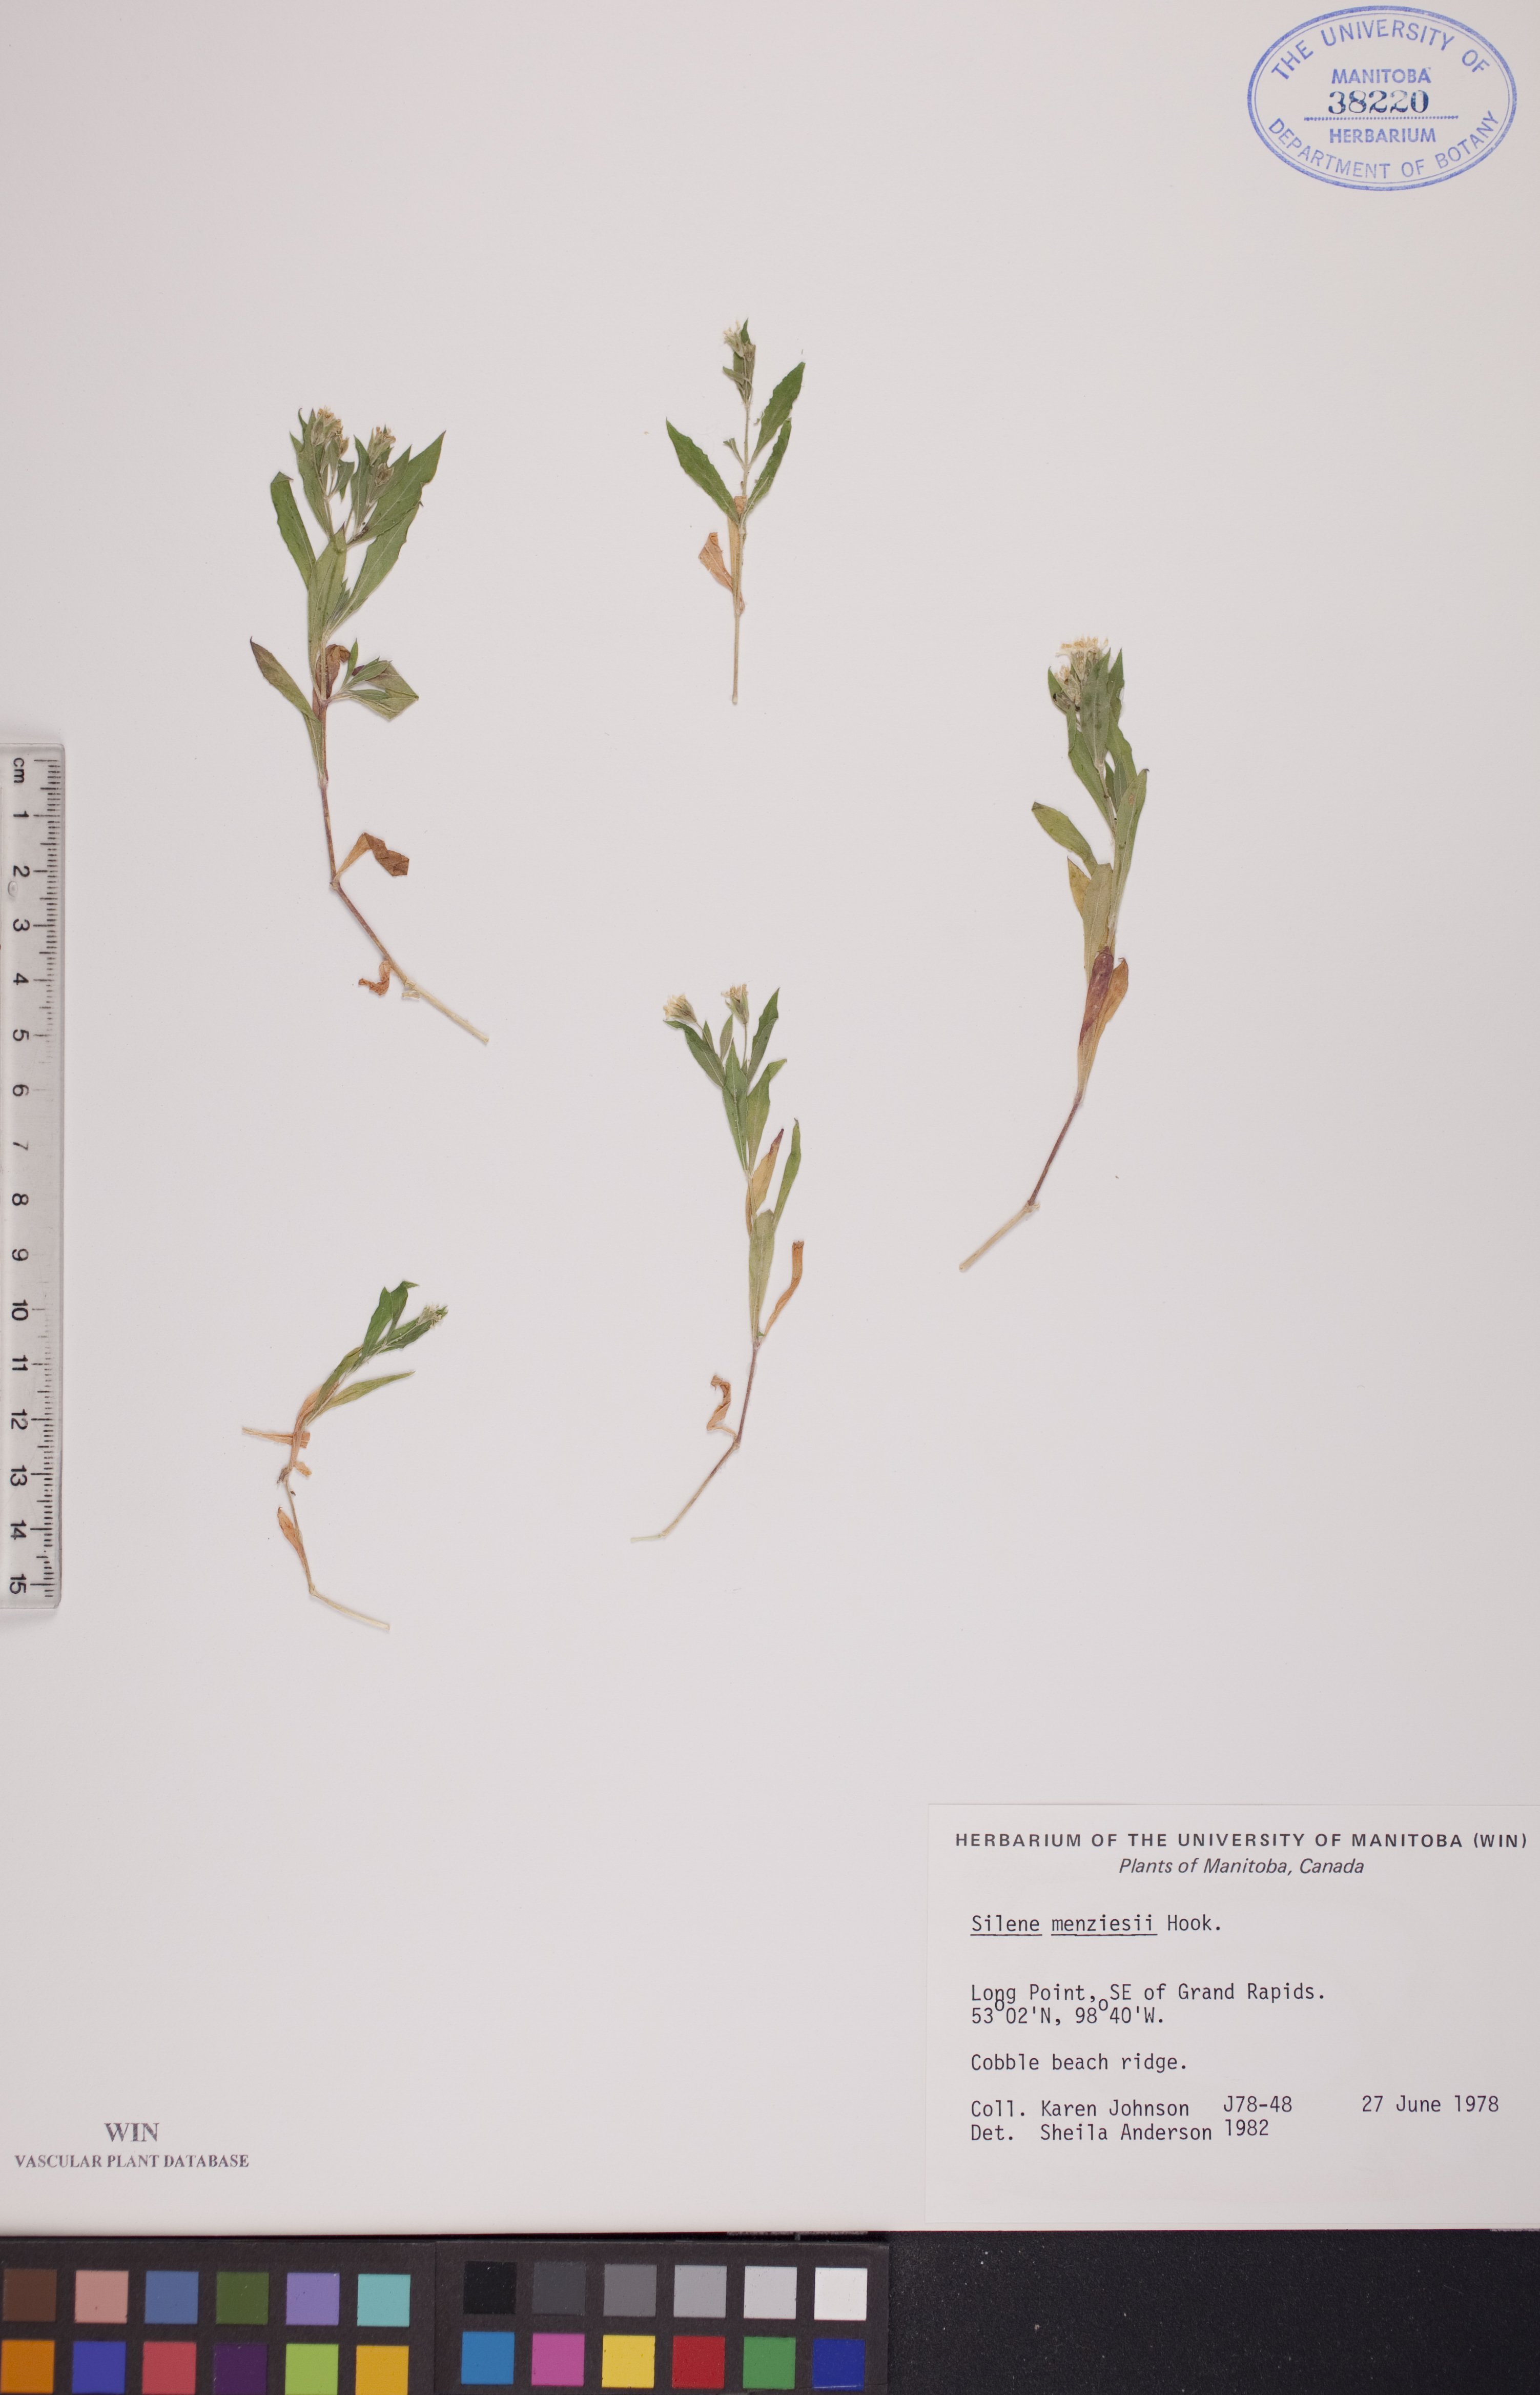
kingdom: Plantae
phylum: Tracheophyta
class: Magnoliopsida
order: Caryophyllales
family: Caryophyllaceae
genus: Silene
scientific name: Silene menziesii
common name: Menzies's catchfly
